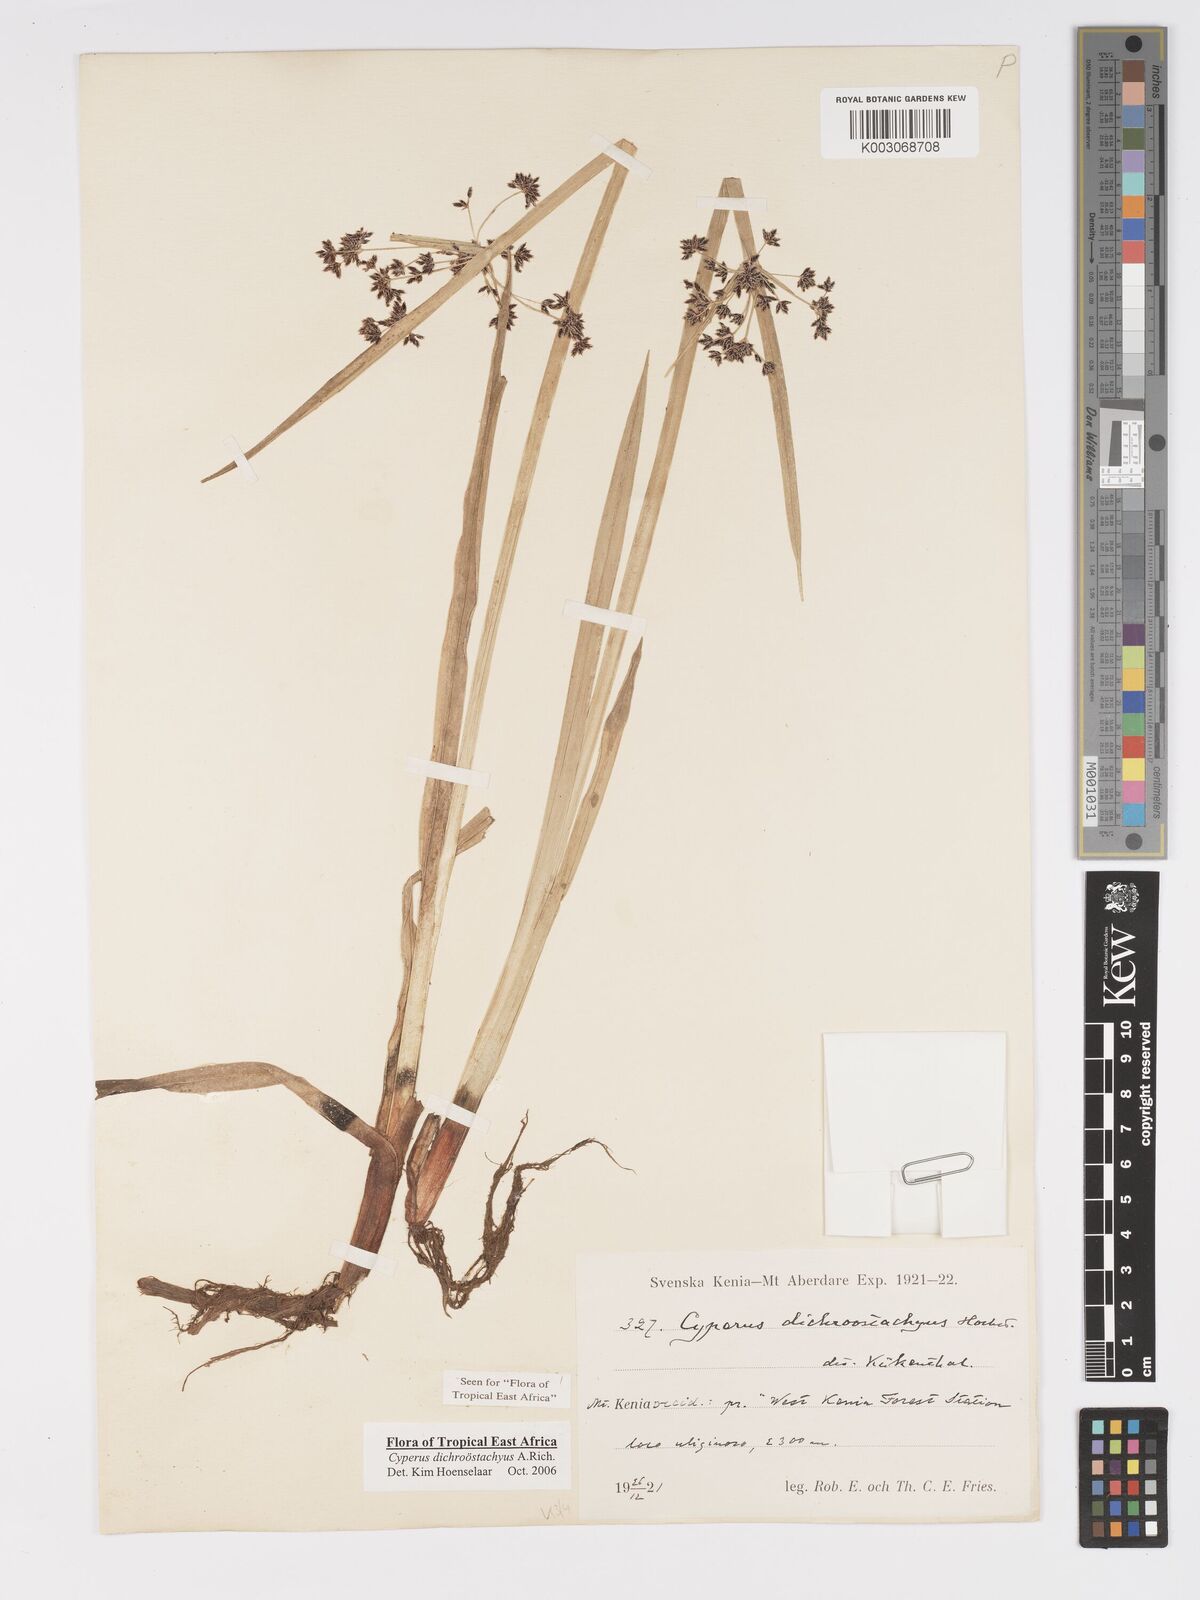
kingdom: Plantae
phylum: Tracheophyta
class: Liliopsida
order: Poales
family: Cyperaceae
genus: Cyperus
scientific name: Cyperus dichrostachyus
